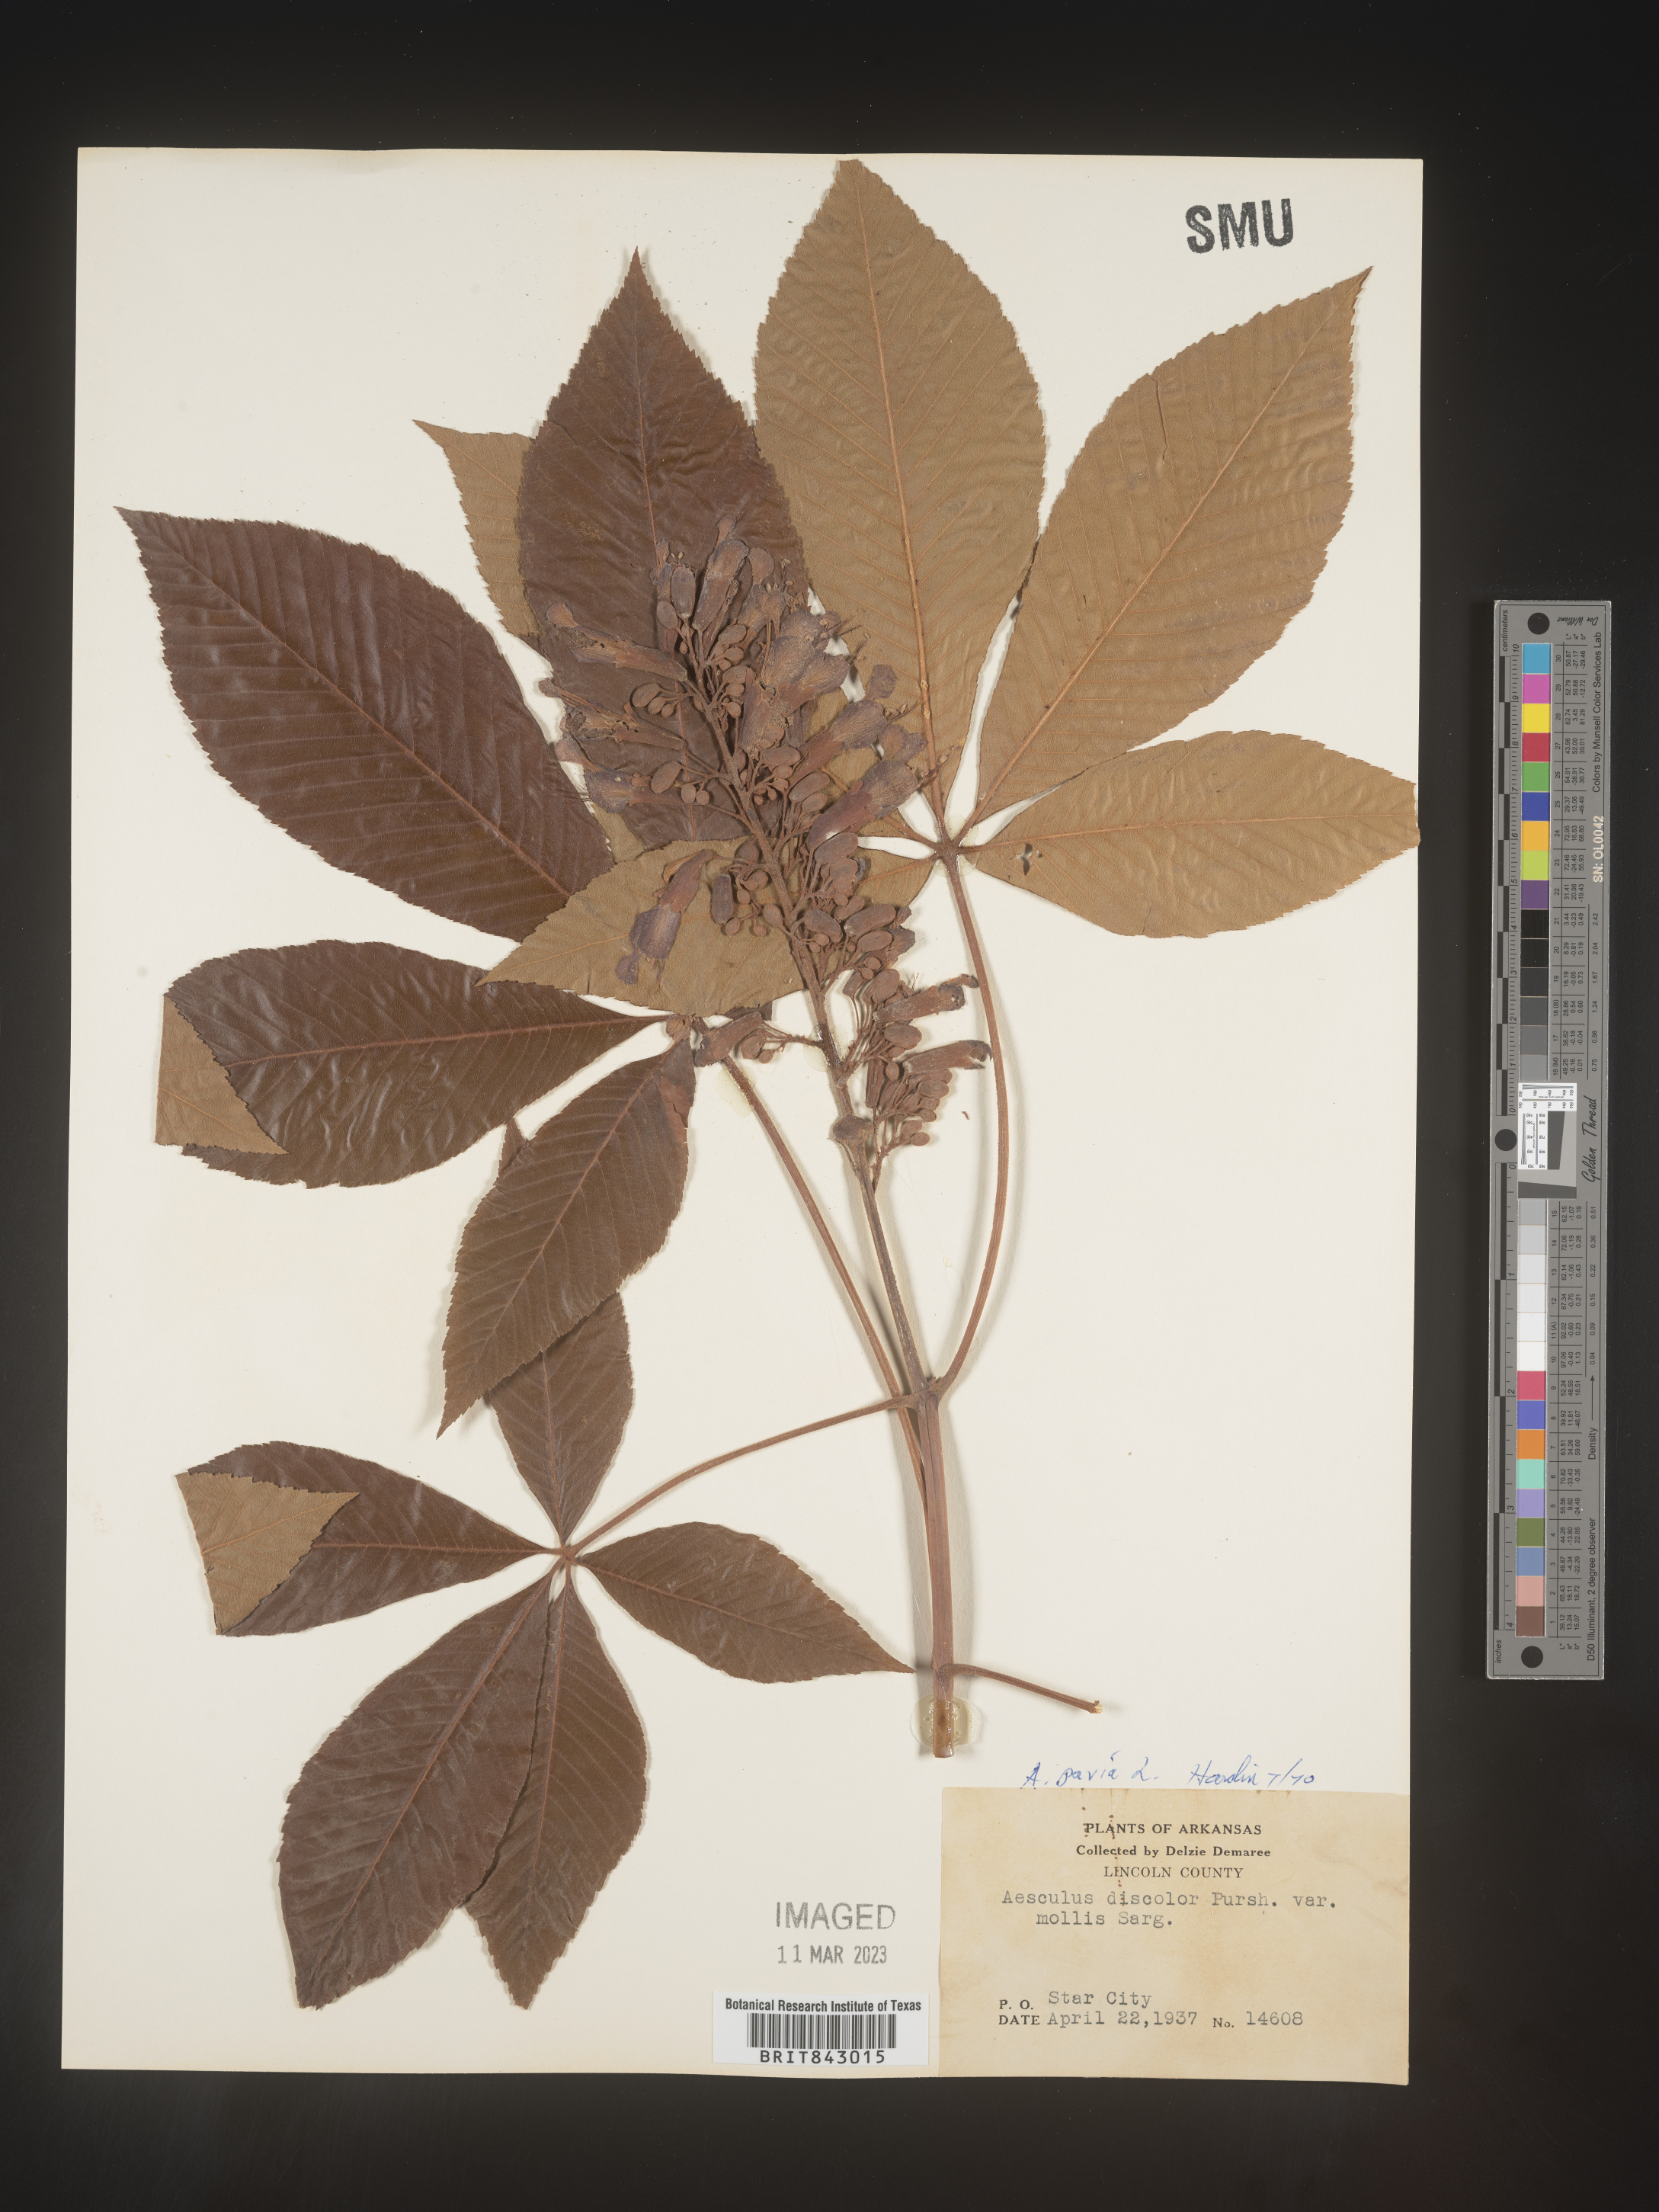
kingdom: Plantae
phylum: Tracheophyta
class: Magnoliopsida
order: Sapindales
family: Sapindaceae
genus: Aesculus
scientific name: Aesculus pavia
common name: Red buckeye
